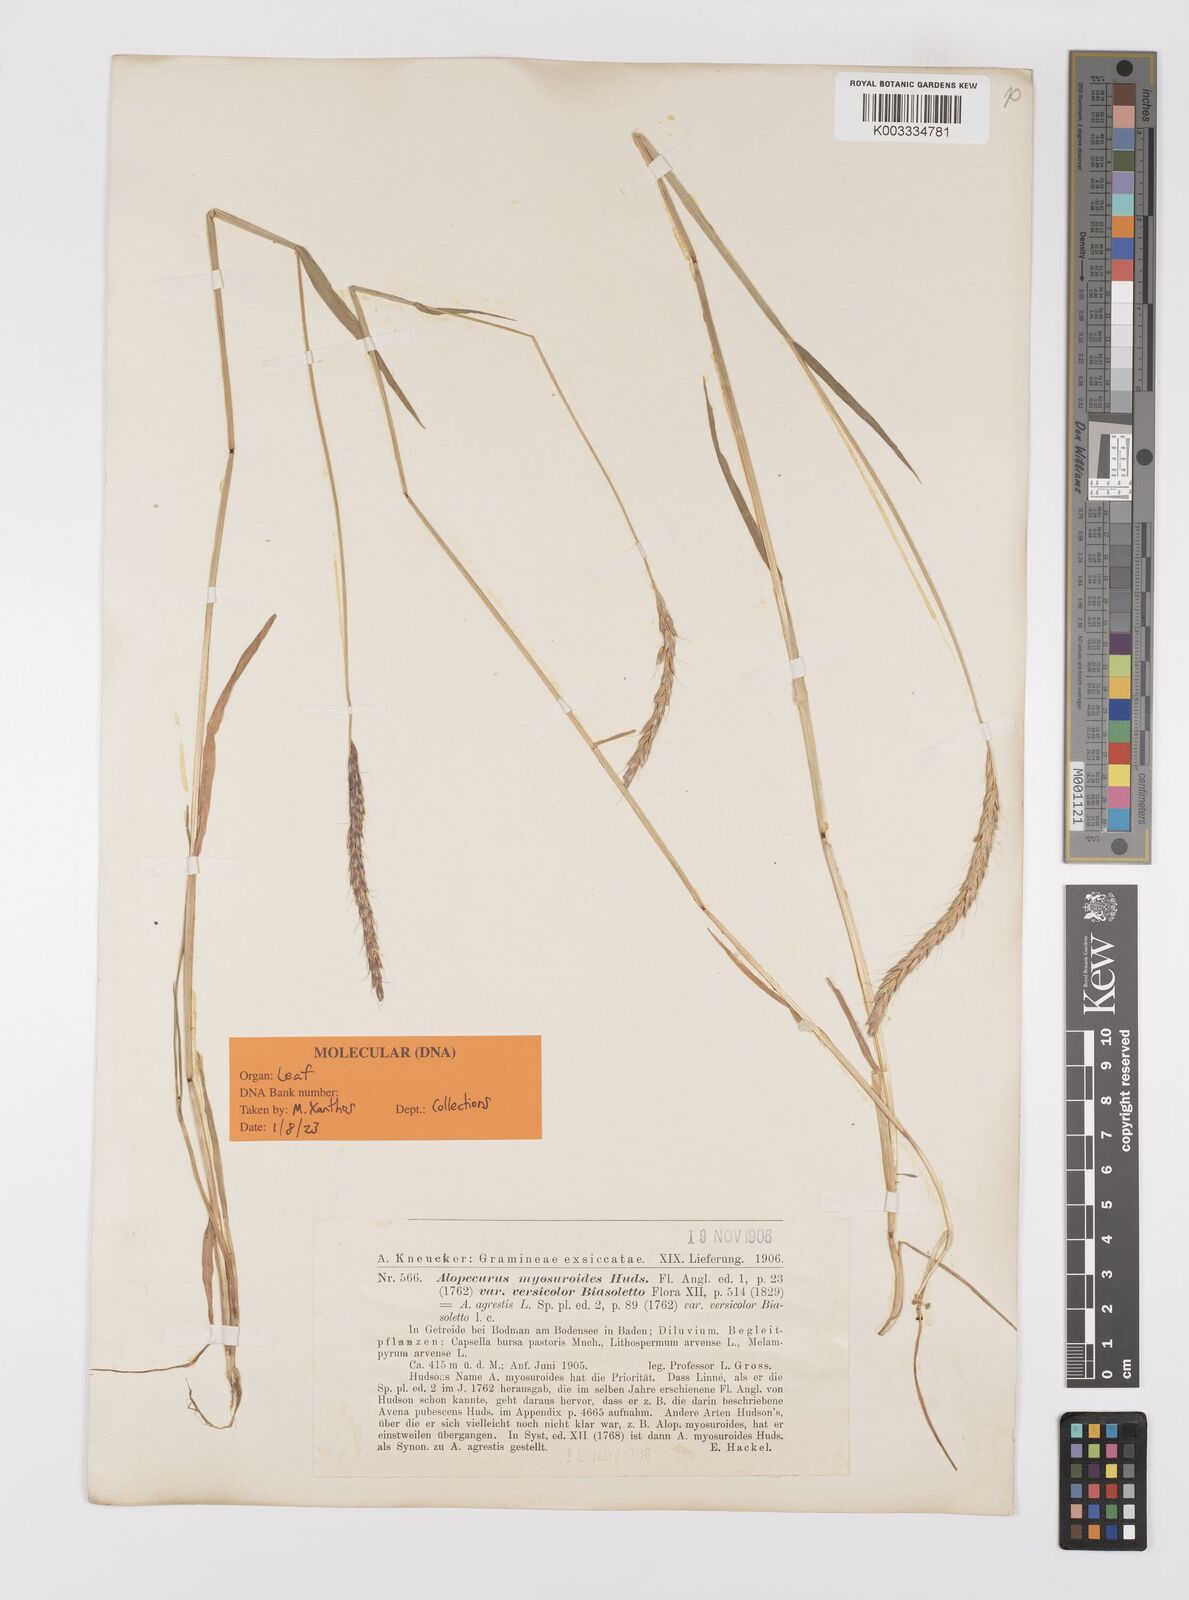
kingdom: Plantae
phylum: Tracheophyta
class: Liliopsida
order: Poales
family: Poaceae
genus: Alopecurus
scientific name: Alopecurus myosuroides
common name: Black-grass
